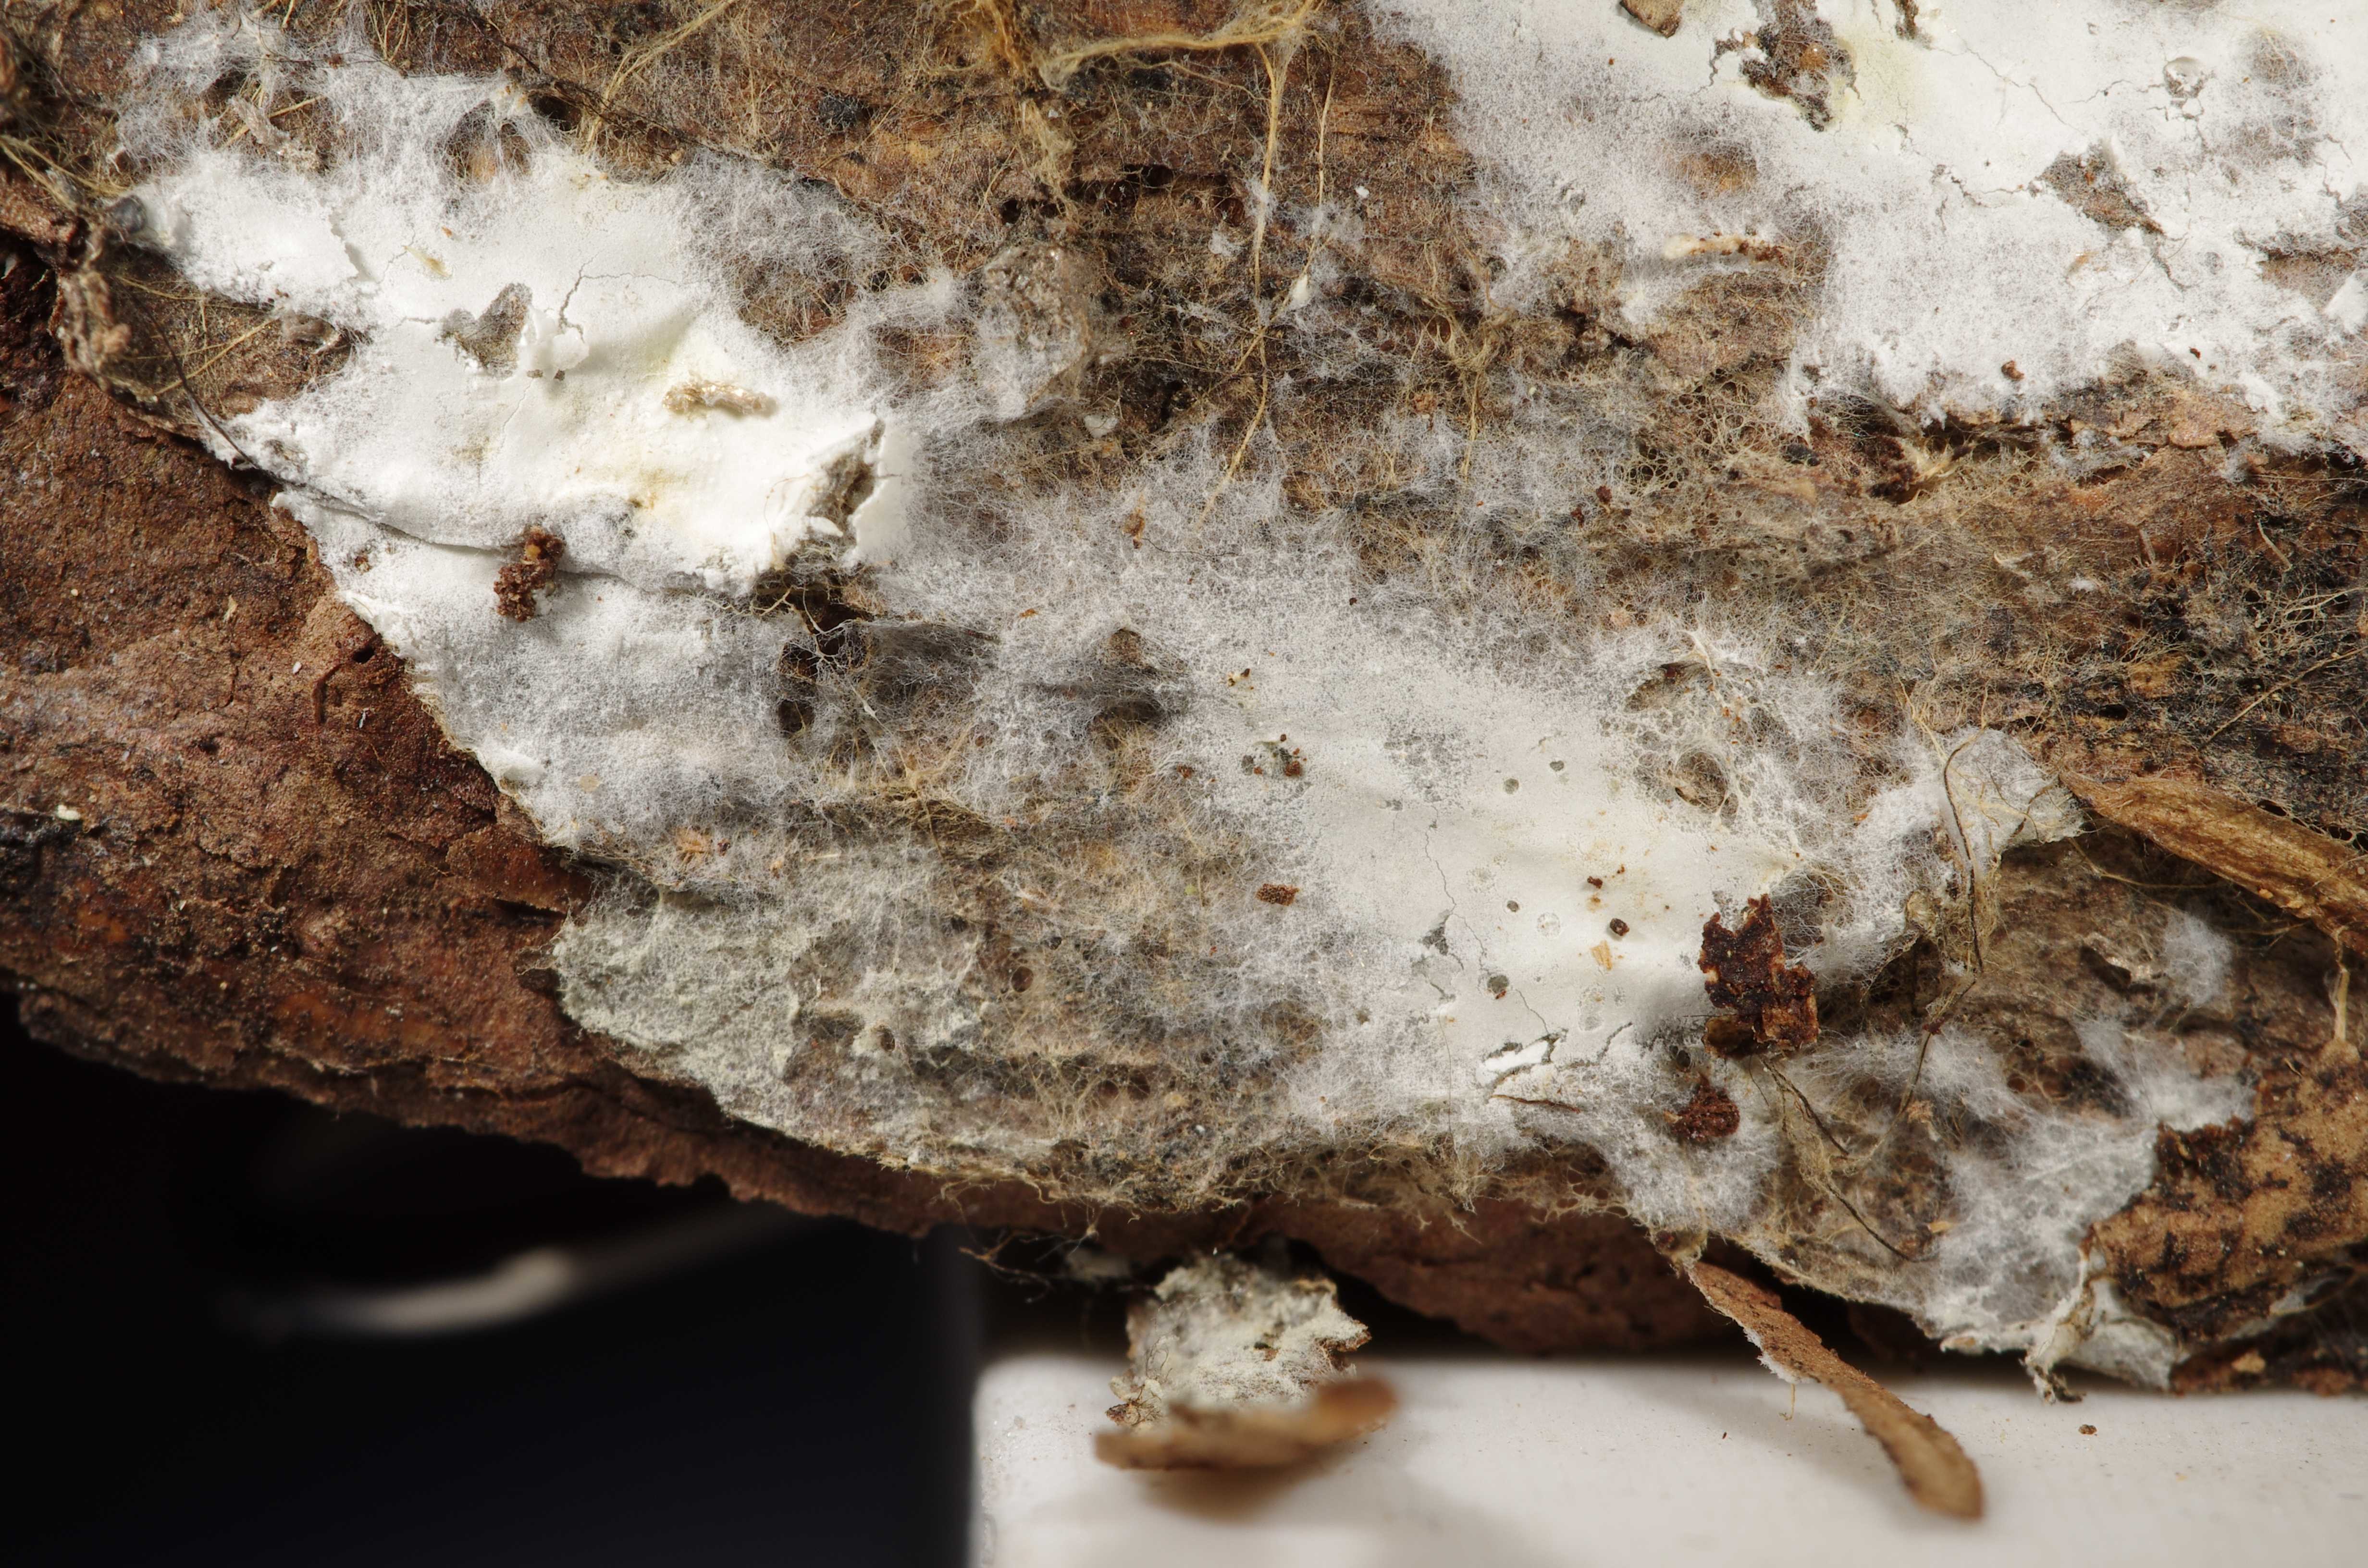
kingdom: Fungi
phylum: Basidiomycota
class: Agaricomycetes
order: Atheliales
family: Atheliaceae
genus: Piloderma
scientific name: Piloderma
